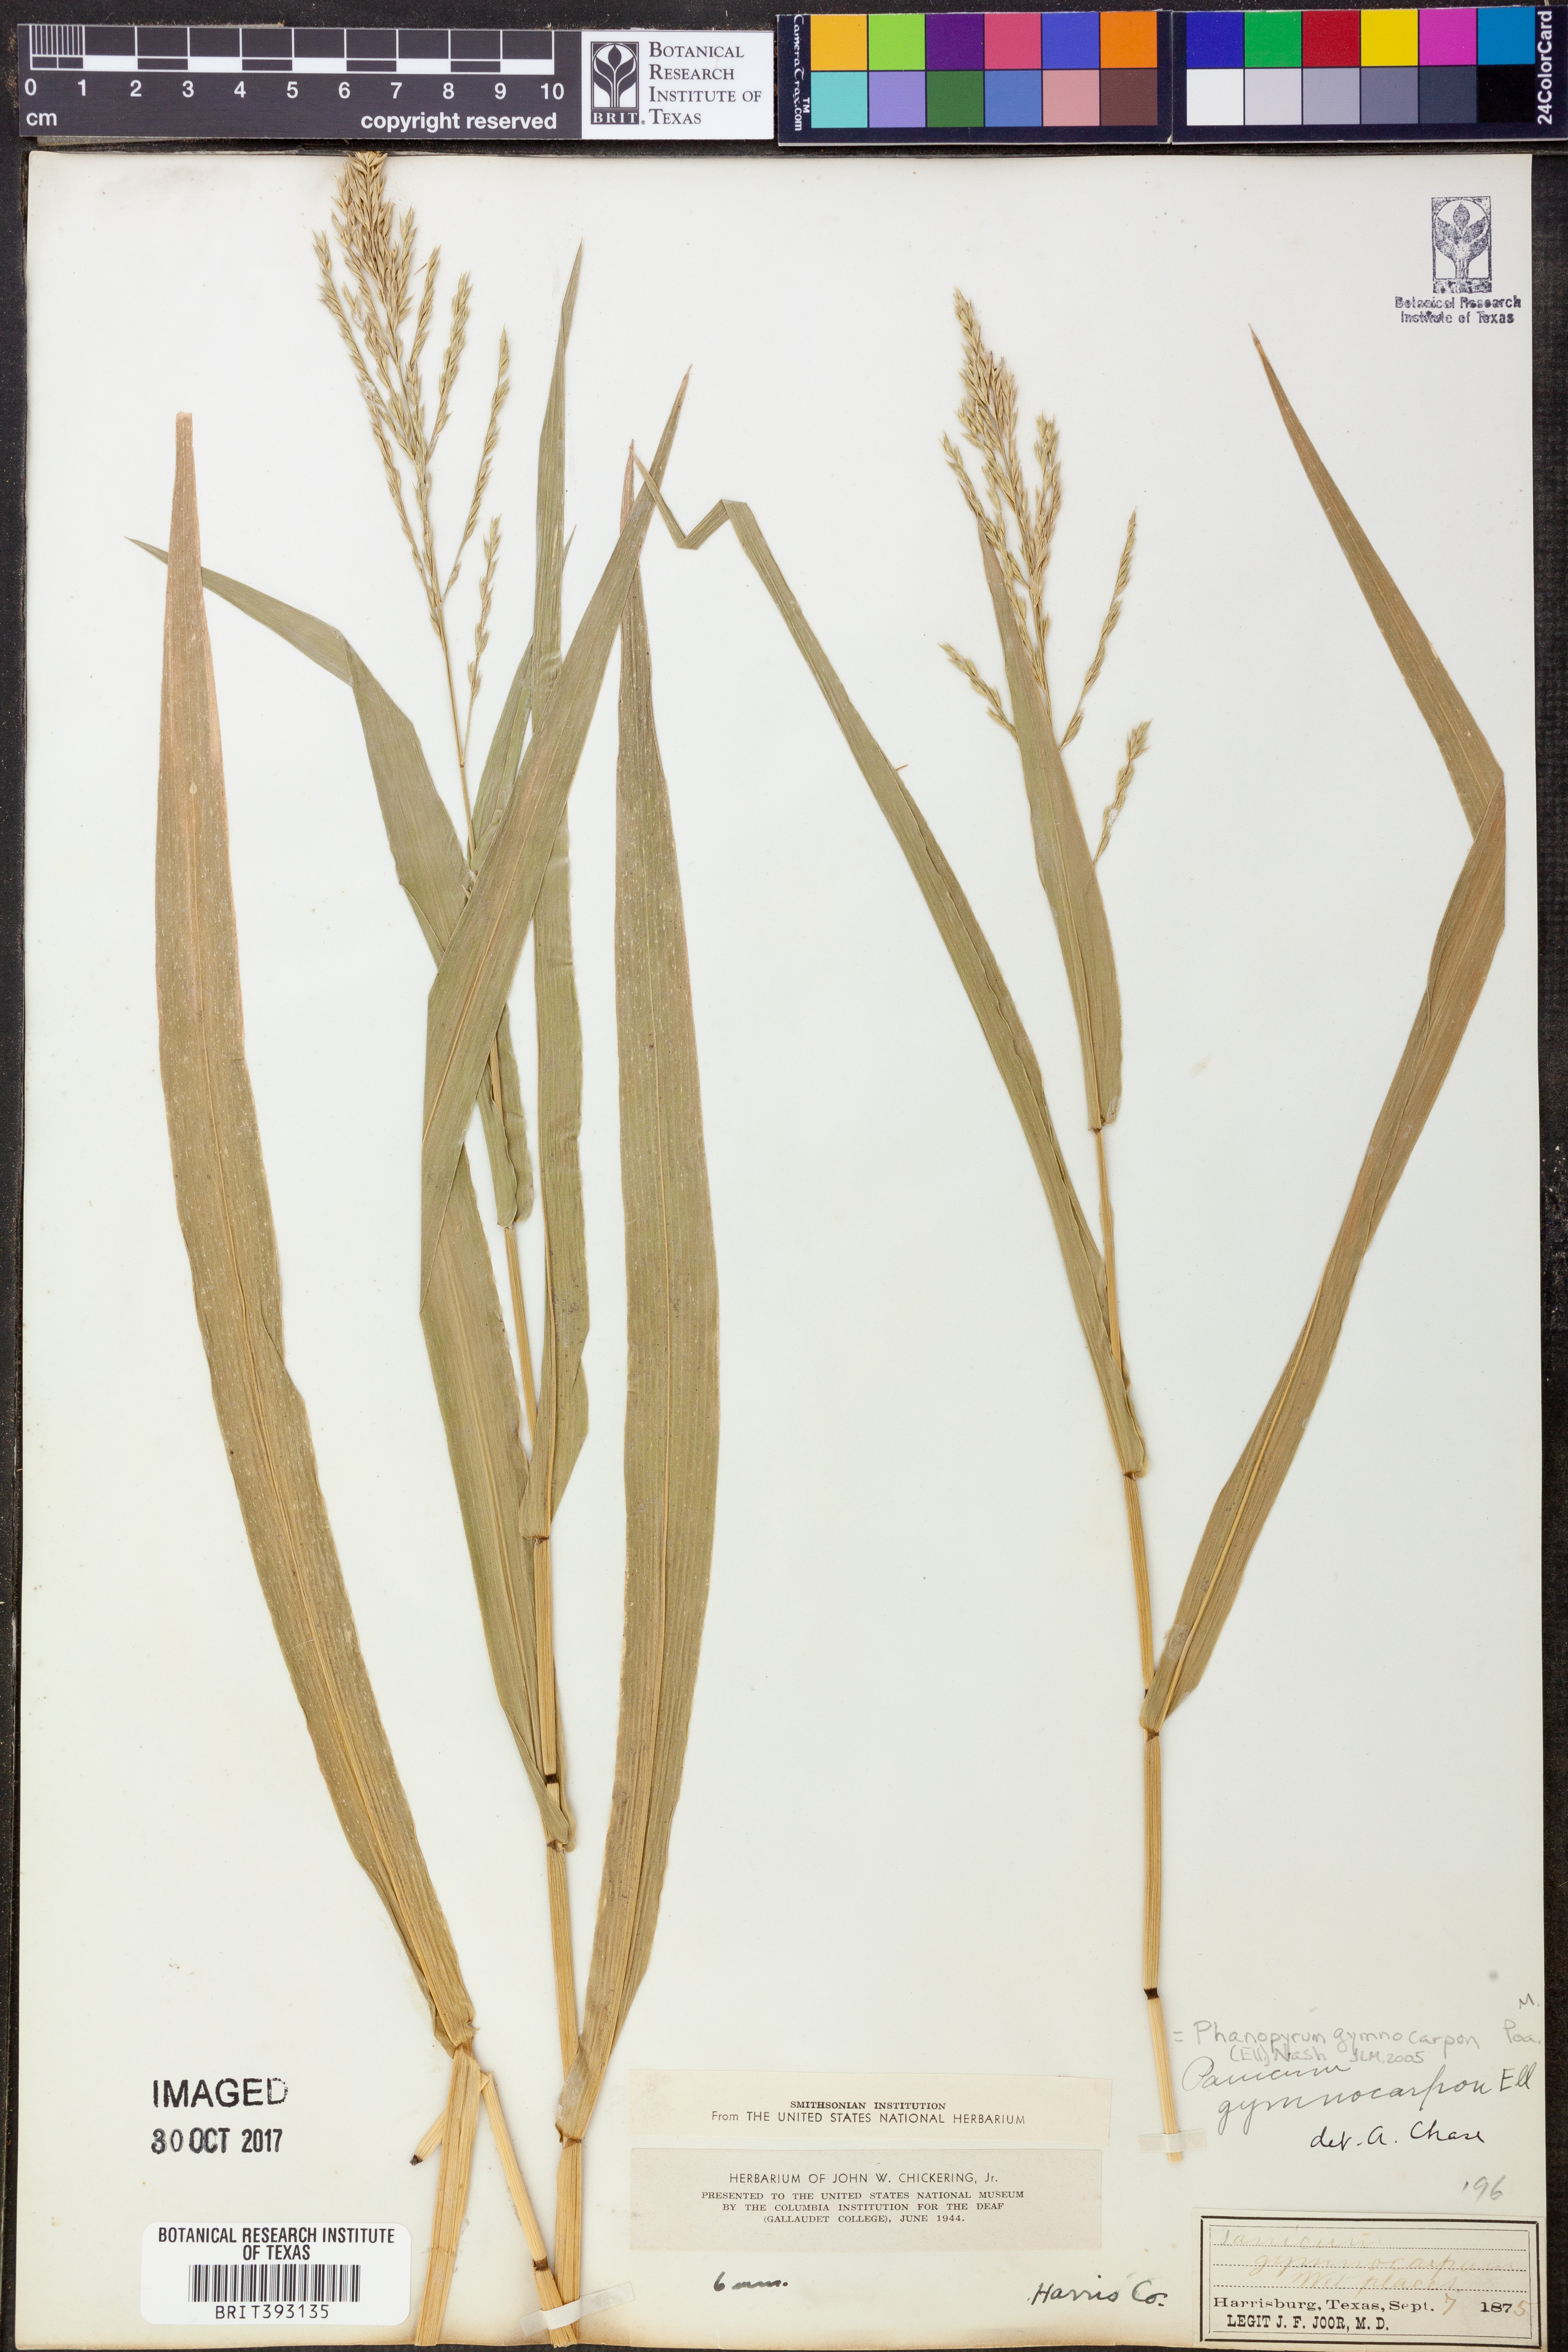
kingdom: Plantae
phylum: Tracheophyta
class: Liliopsida
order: Poales
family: Poaceae
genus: Panicum
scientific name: Panicum gymnocarpon
